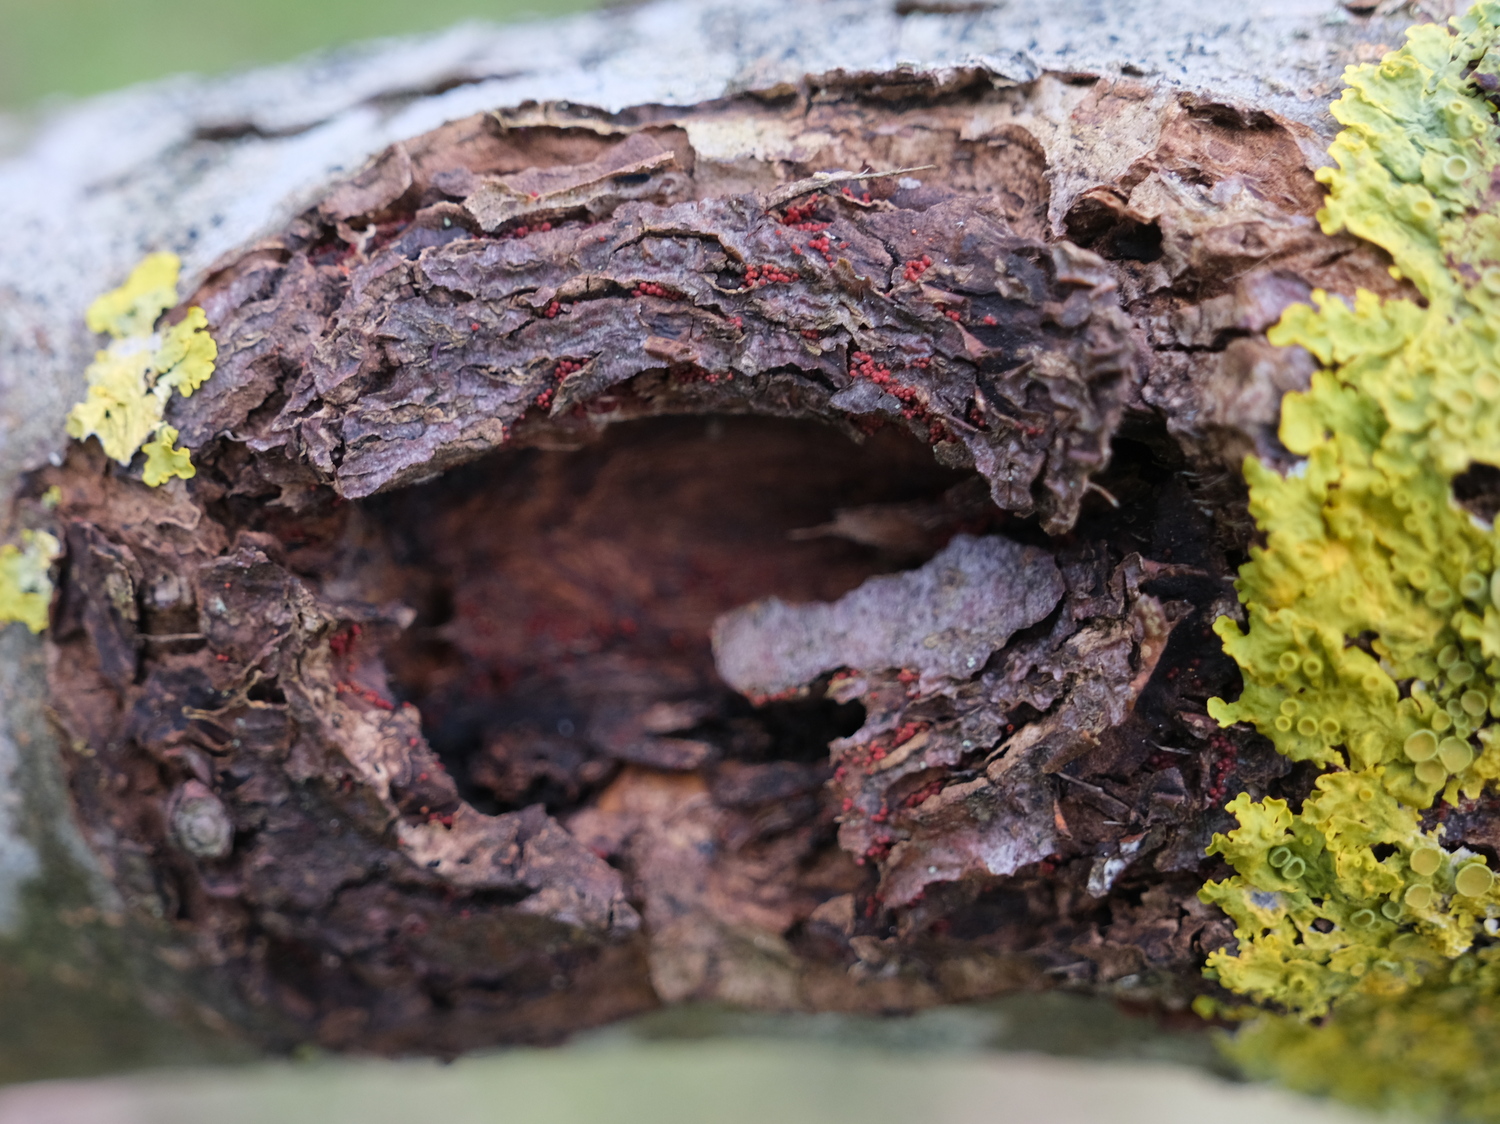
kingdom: Fungi
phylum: Ascomycota
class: Sordariomycetes
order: Hypocreales
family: Nectriaceae
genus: Neonectria
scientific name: Neonectria ditissima
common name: frugttræ-cinnobersvamp
